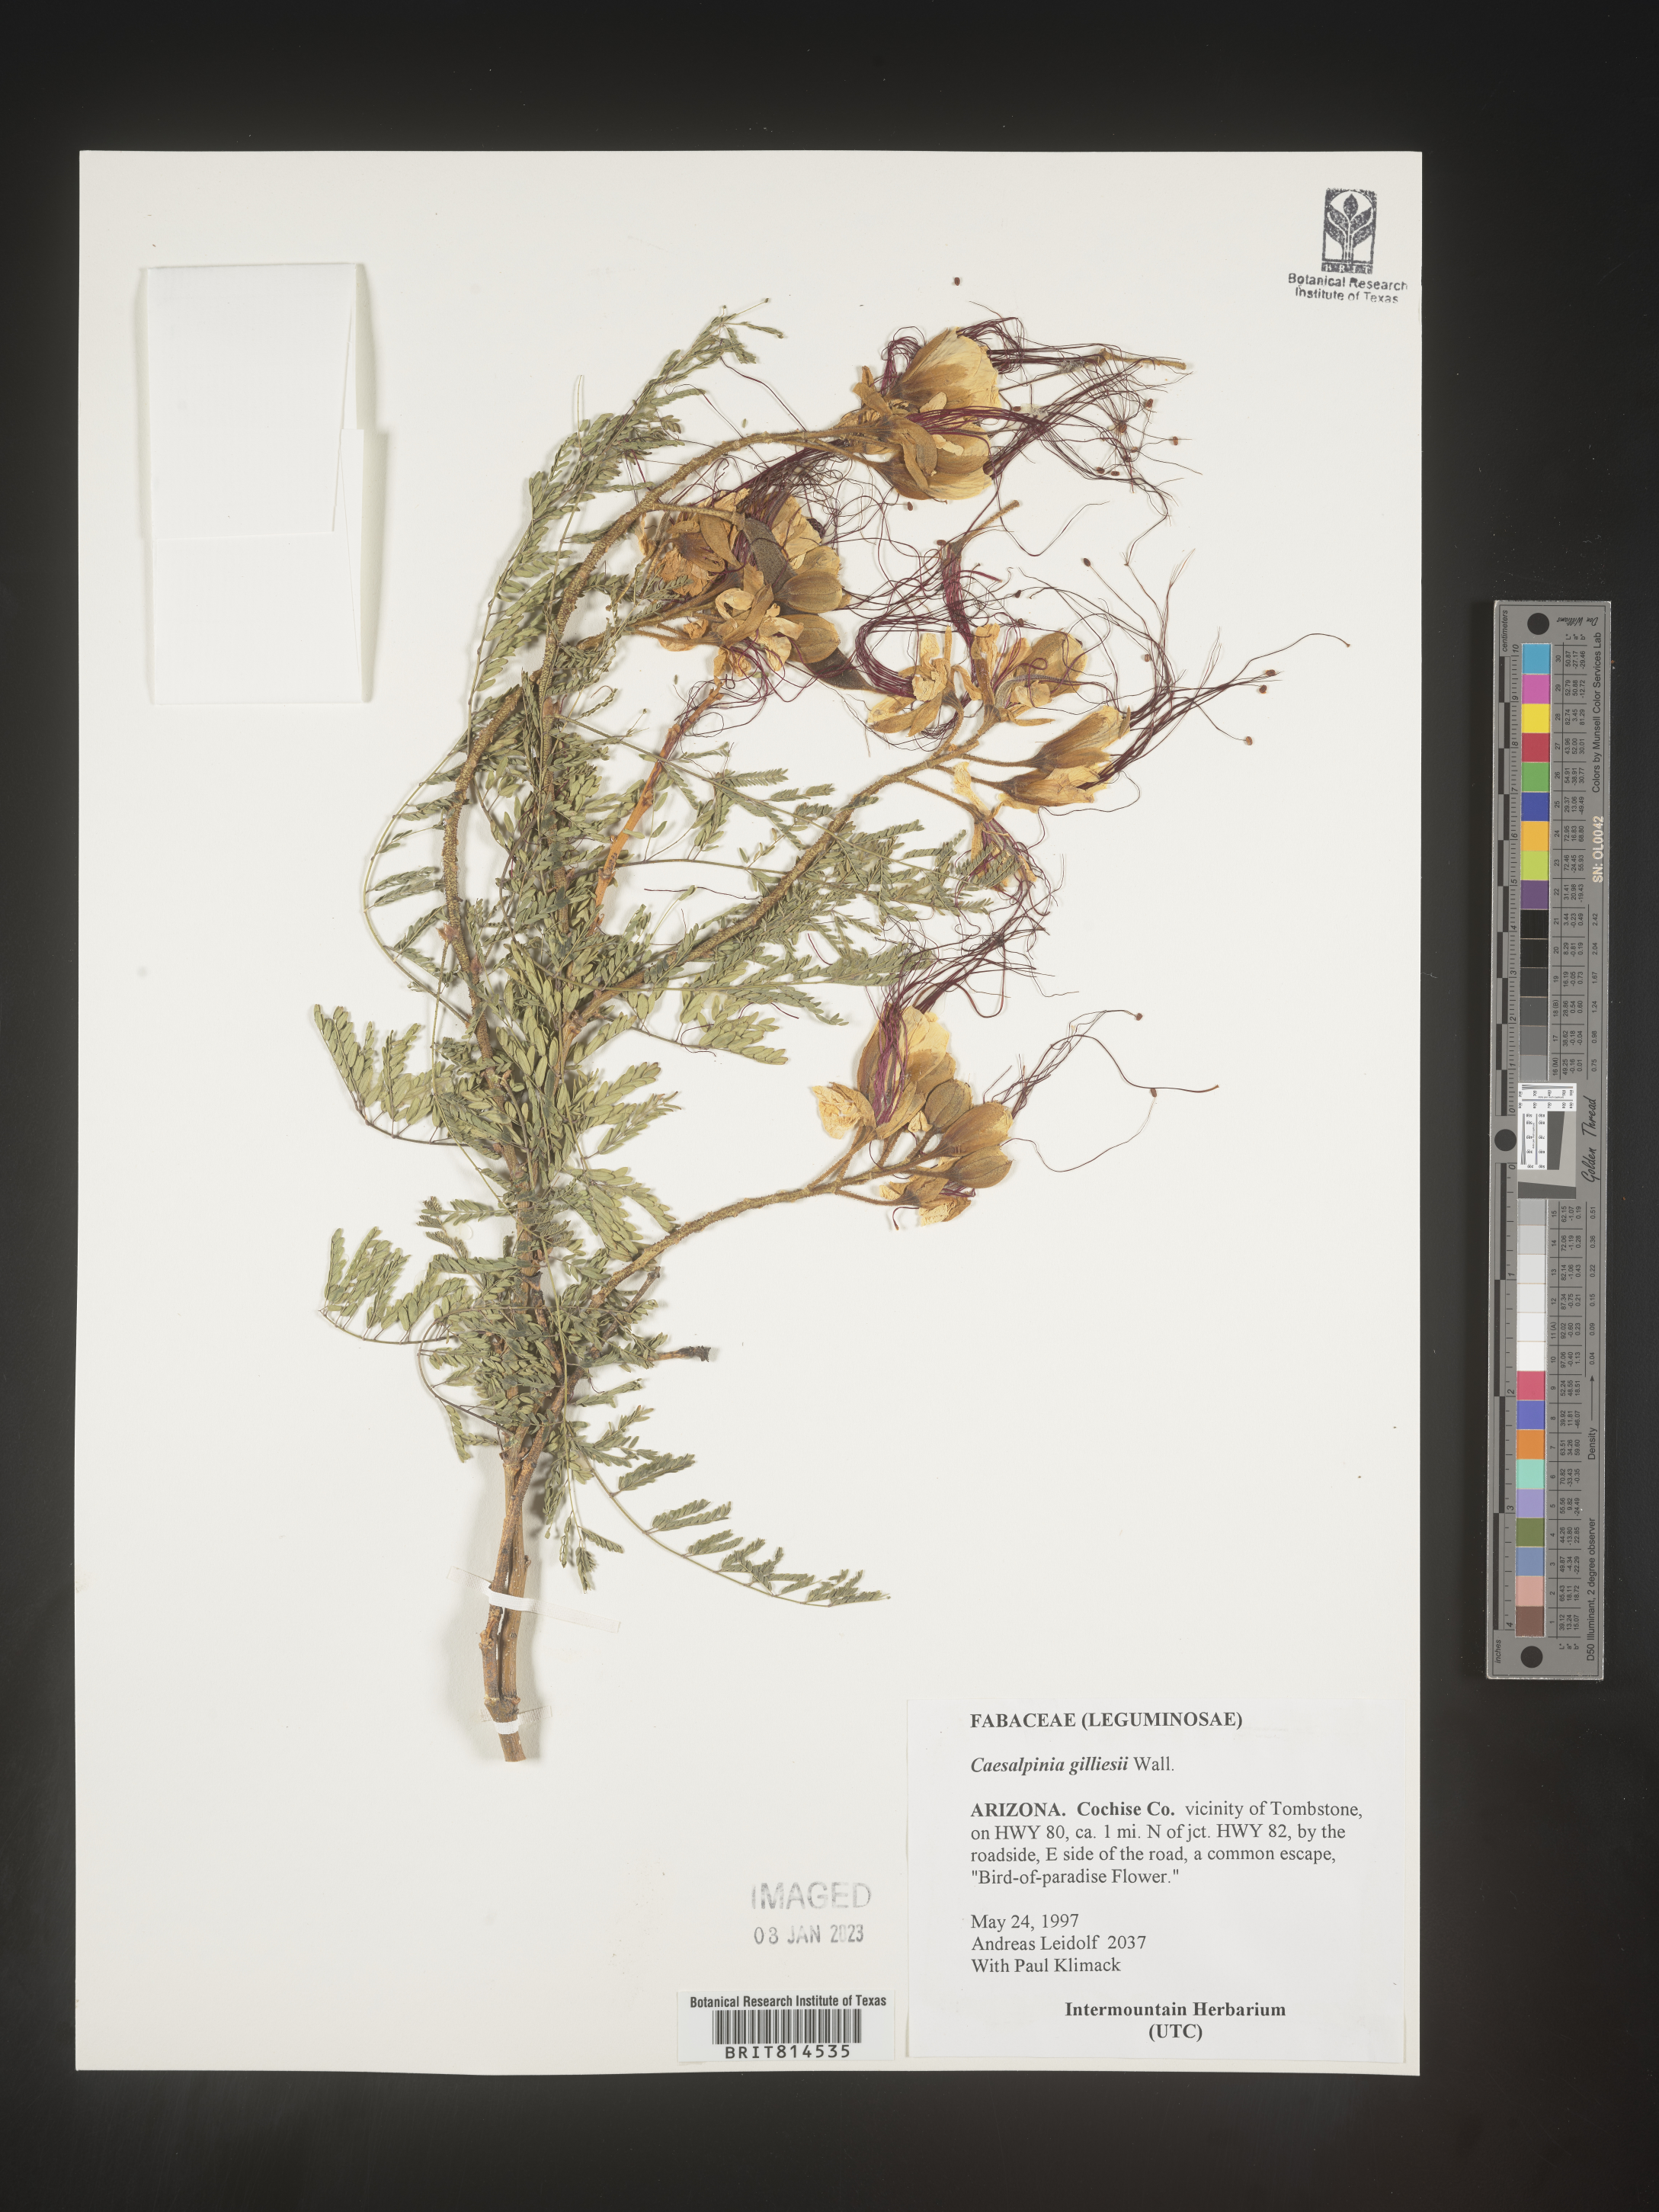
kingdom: Plantae
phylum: Tracheophyta
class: Magnoliopsida
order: Fabales
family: Fabaceae
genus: Caesalpinia
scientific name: Caesalpinia
